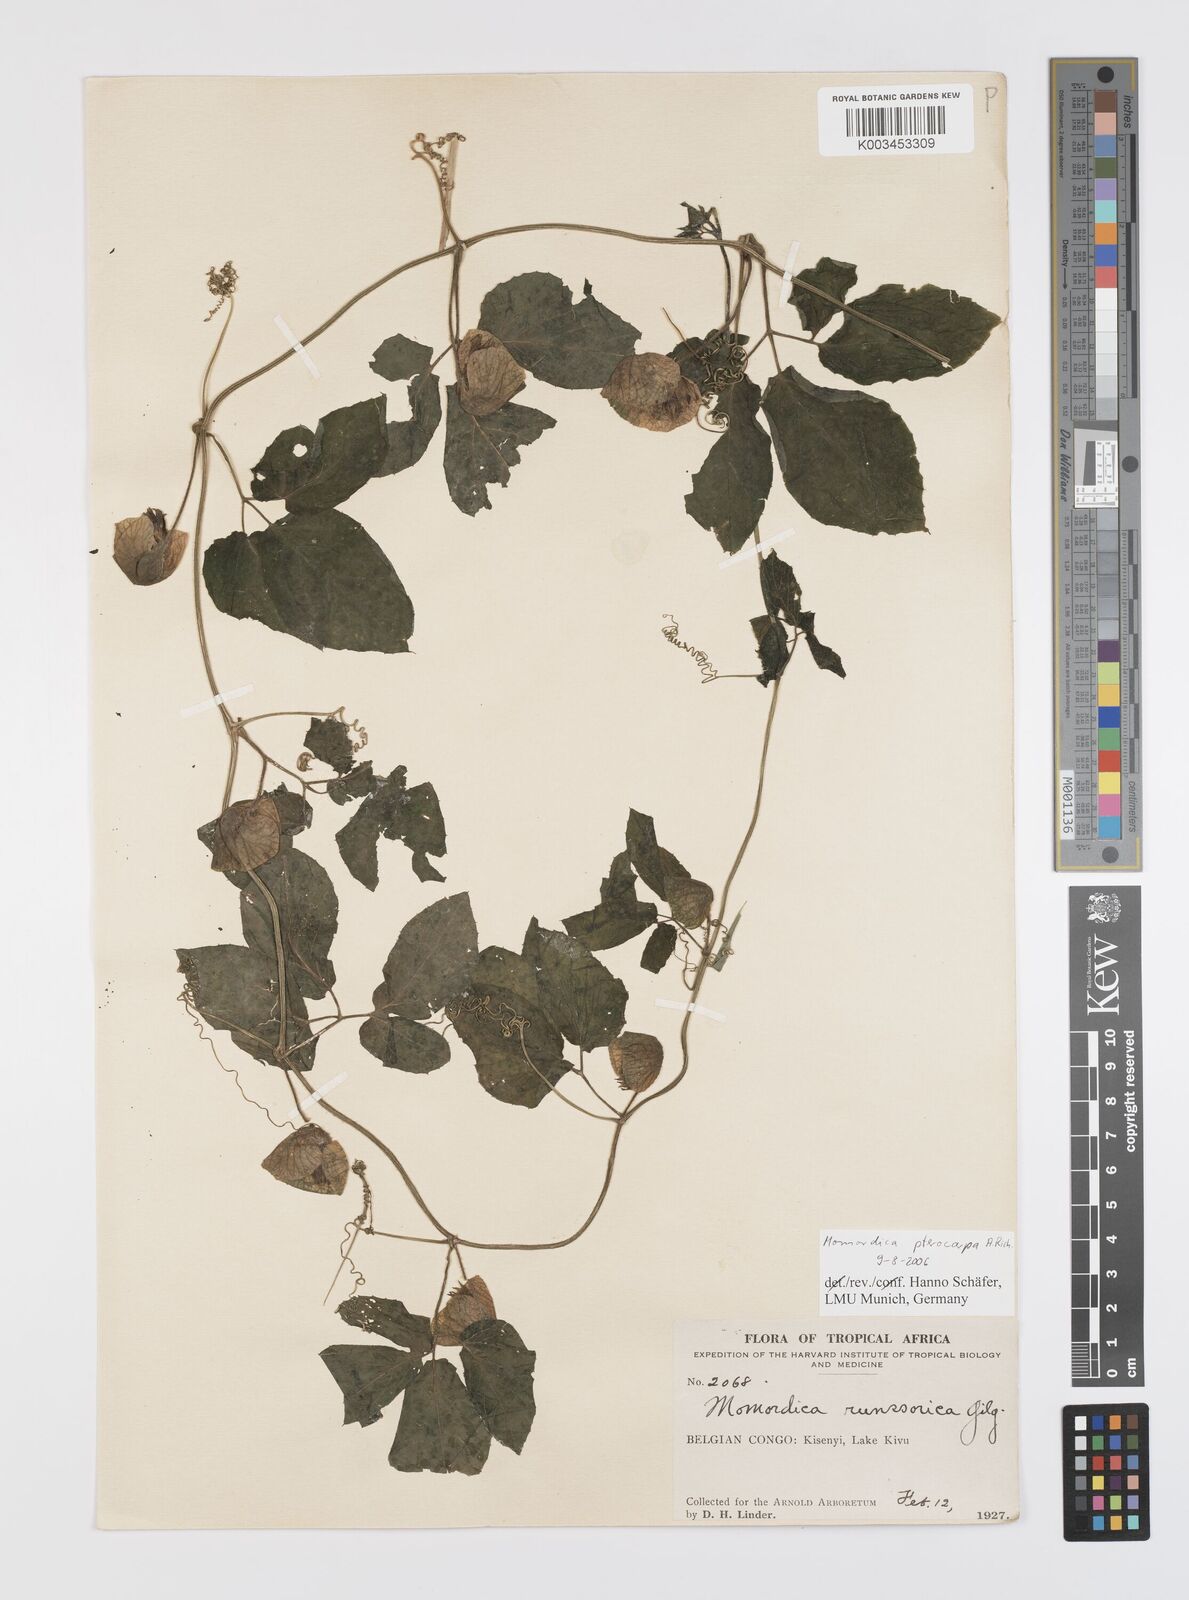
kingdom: Plantae
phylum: Tracheophyta
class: Magnoliopsida
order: Cucurbitales
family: Cucurbitaceae
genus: Momordica
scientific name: Momordica pterocarpa
